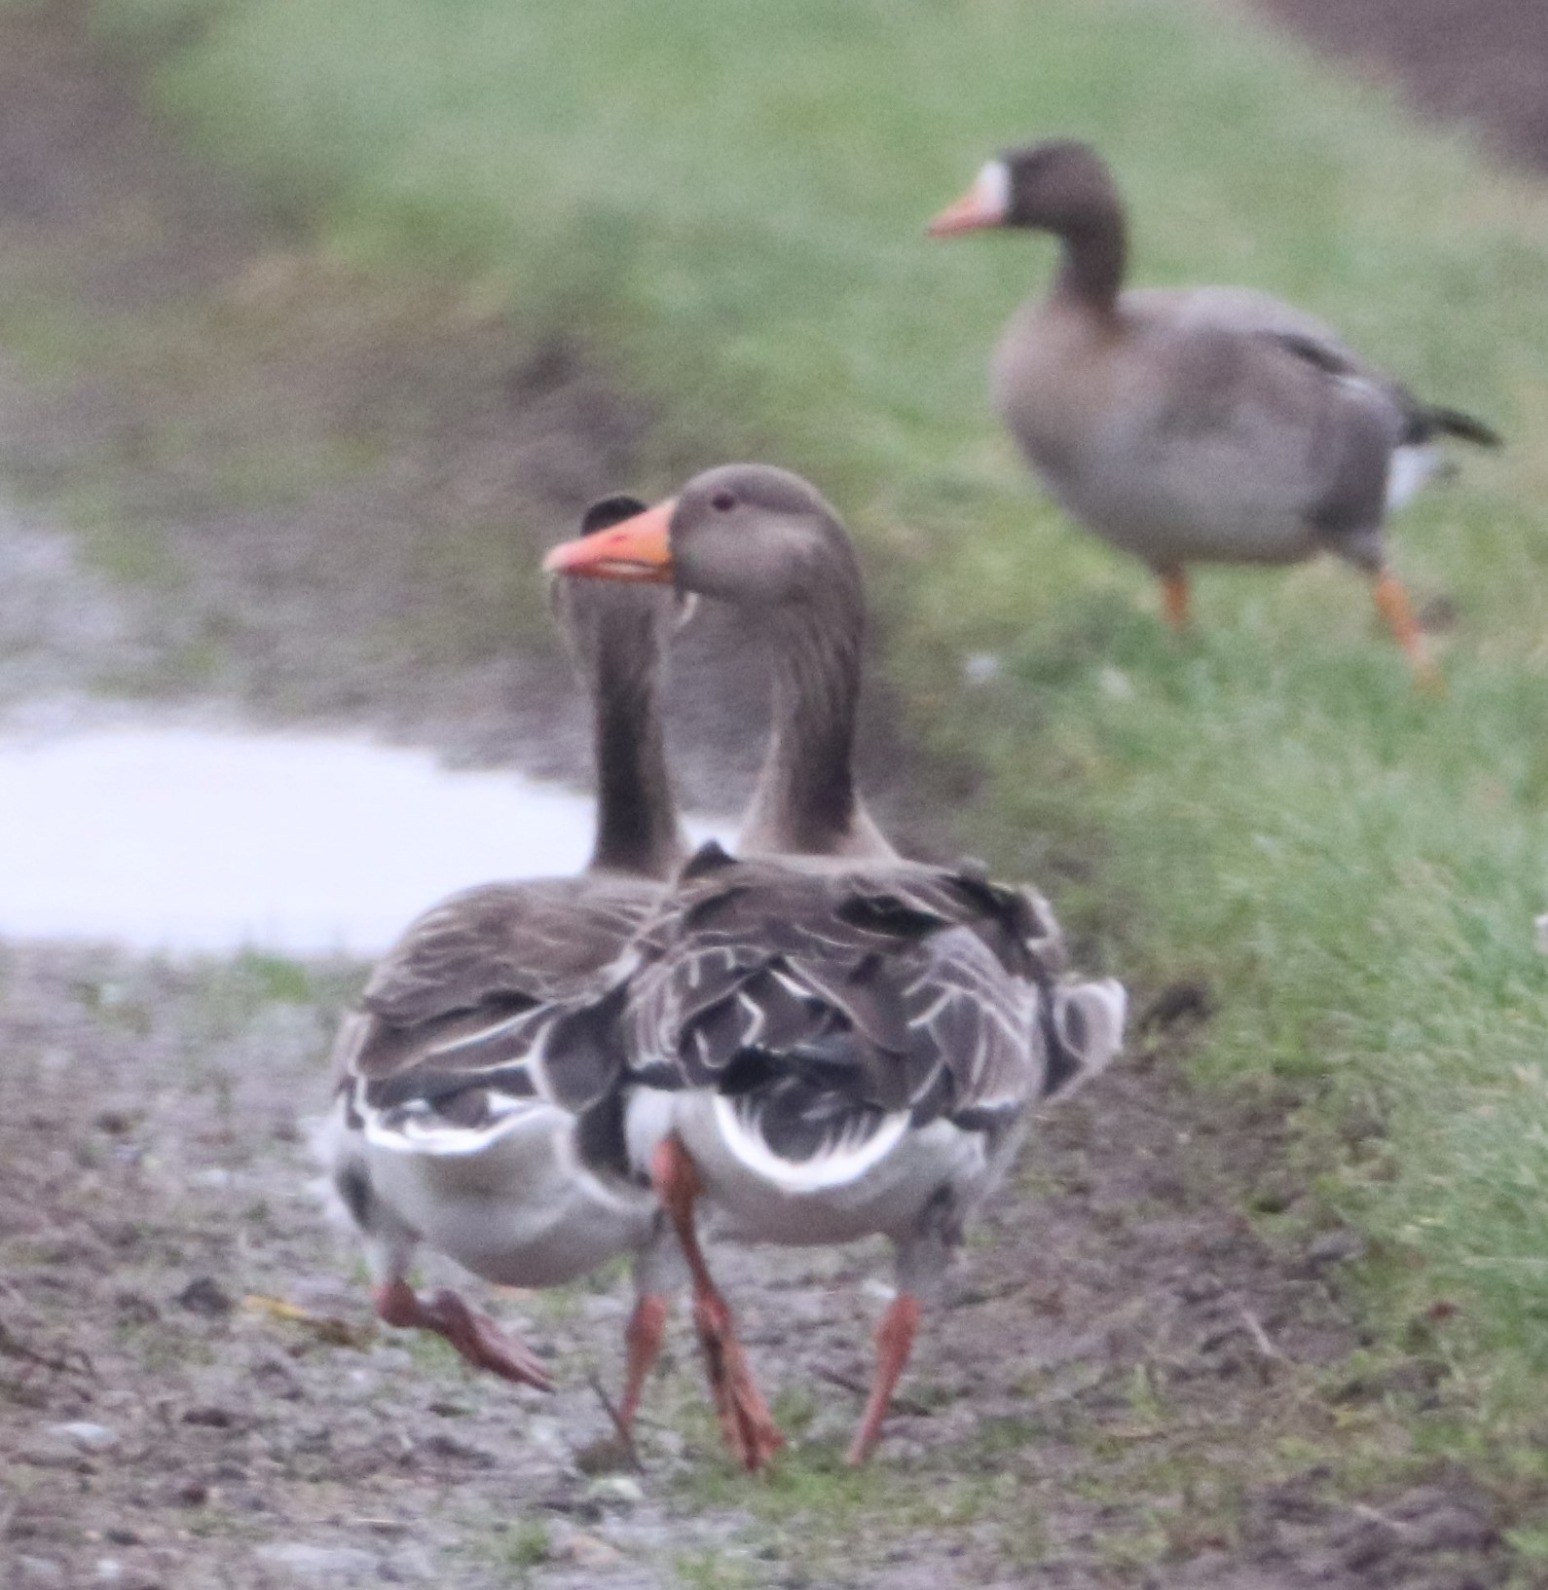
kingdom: Animalia
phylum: Chordata
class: Aves
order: Anseriformes
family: Anatidae
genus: Anser
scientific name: Anser anser
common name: Grågås
